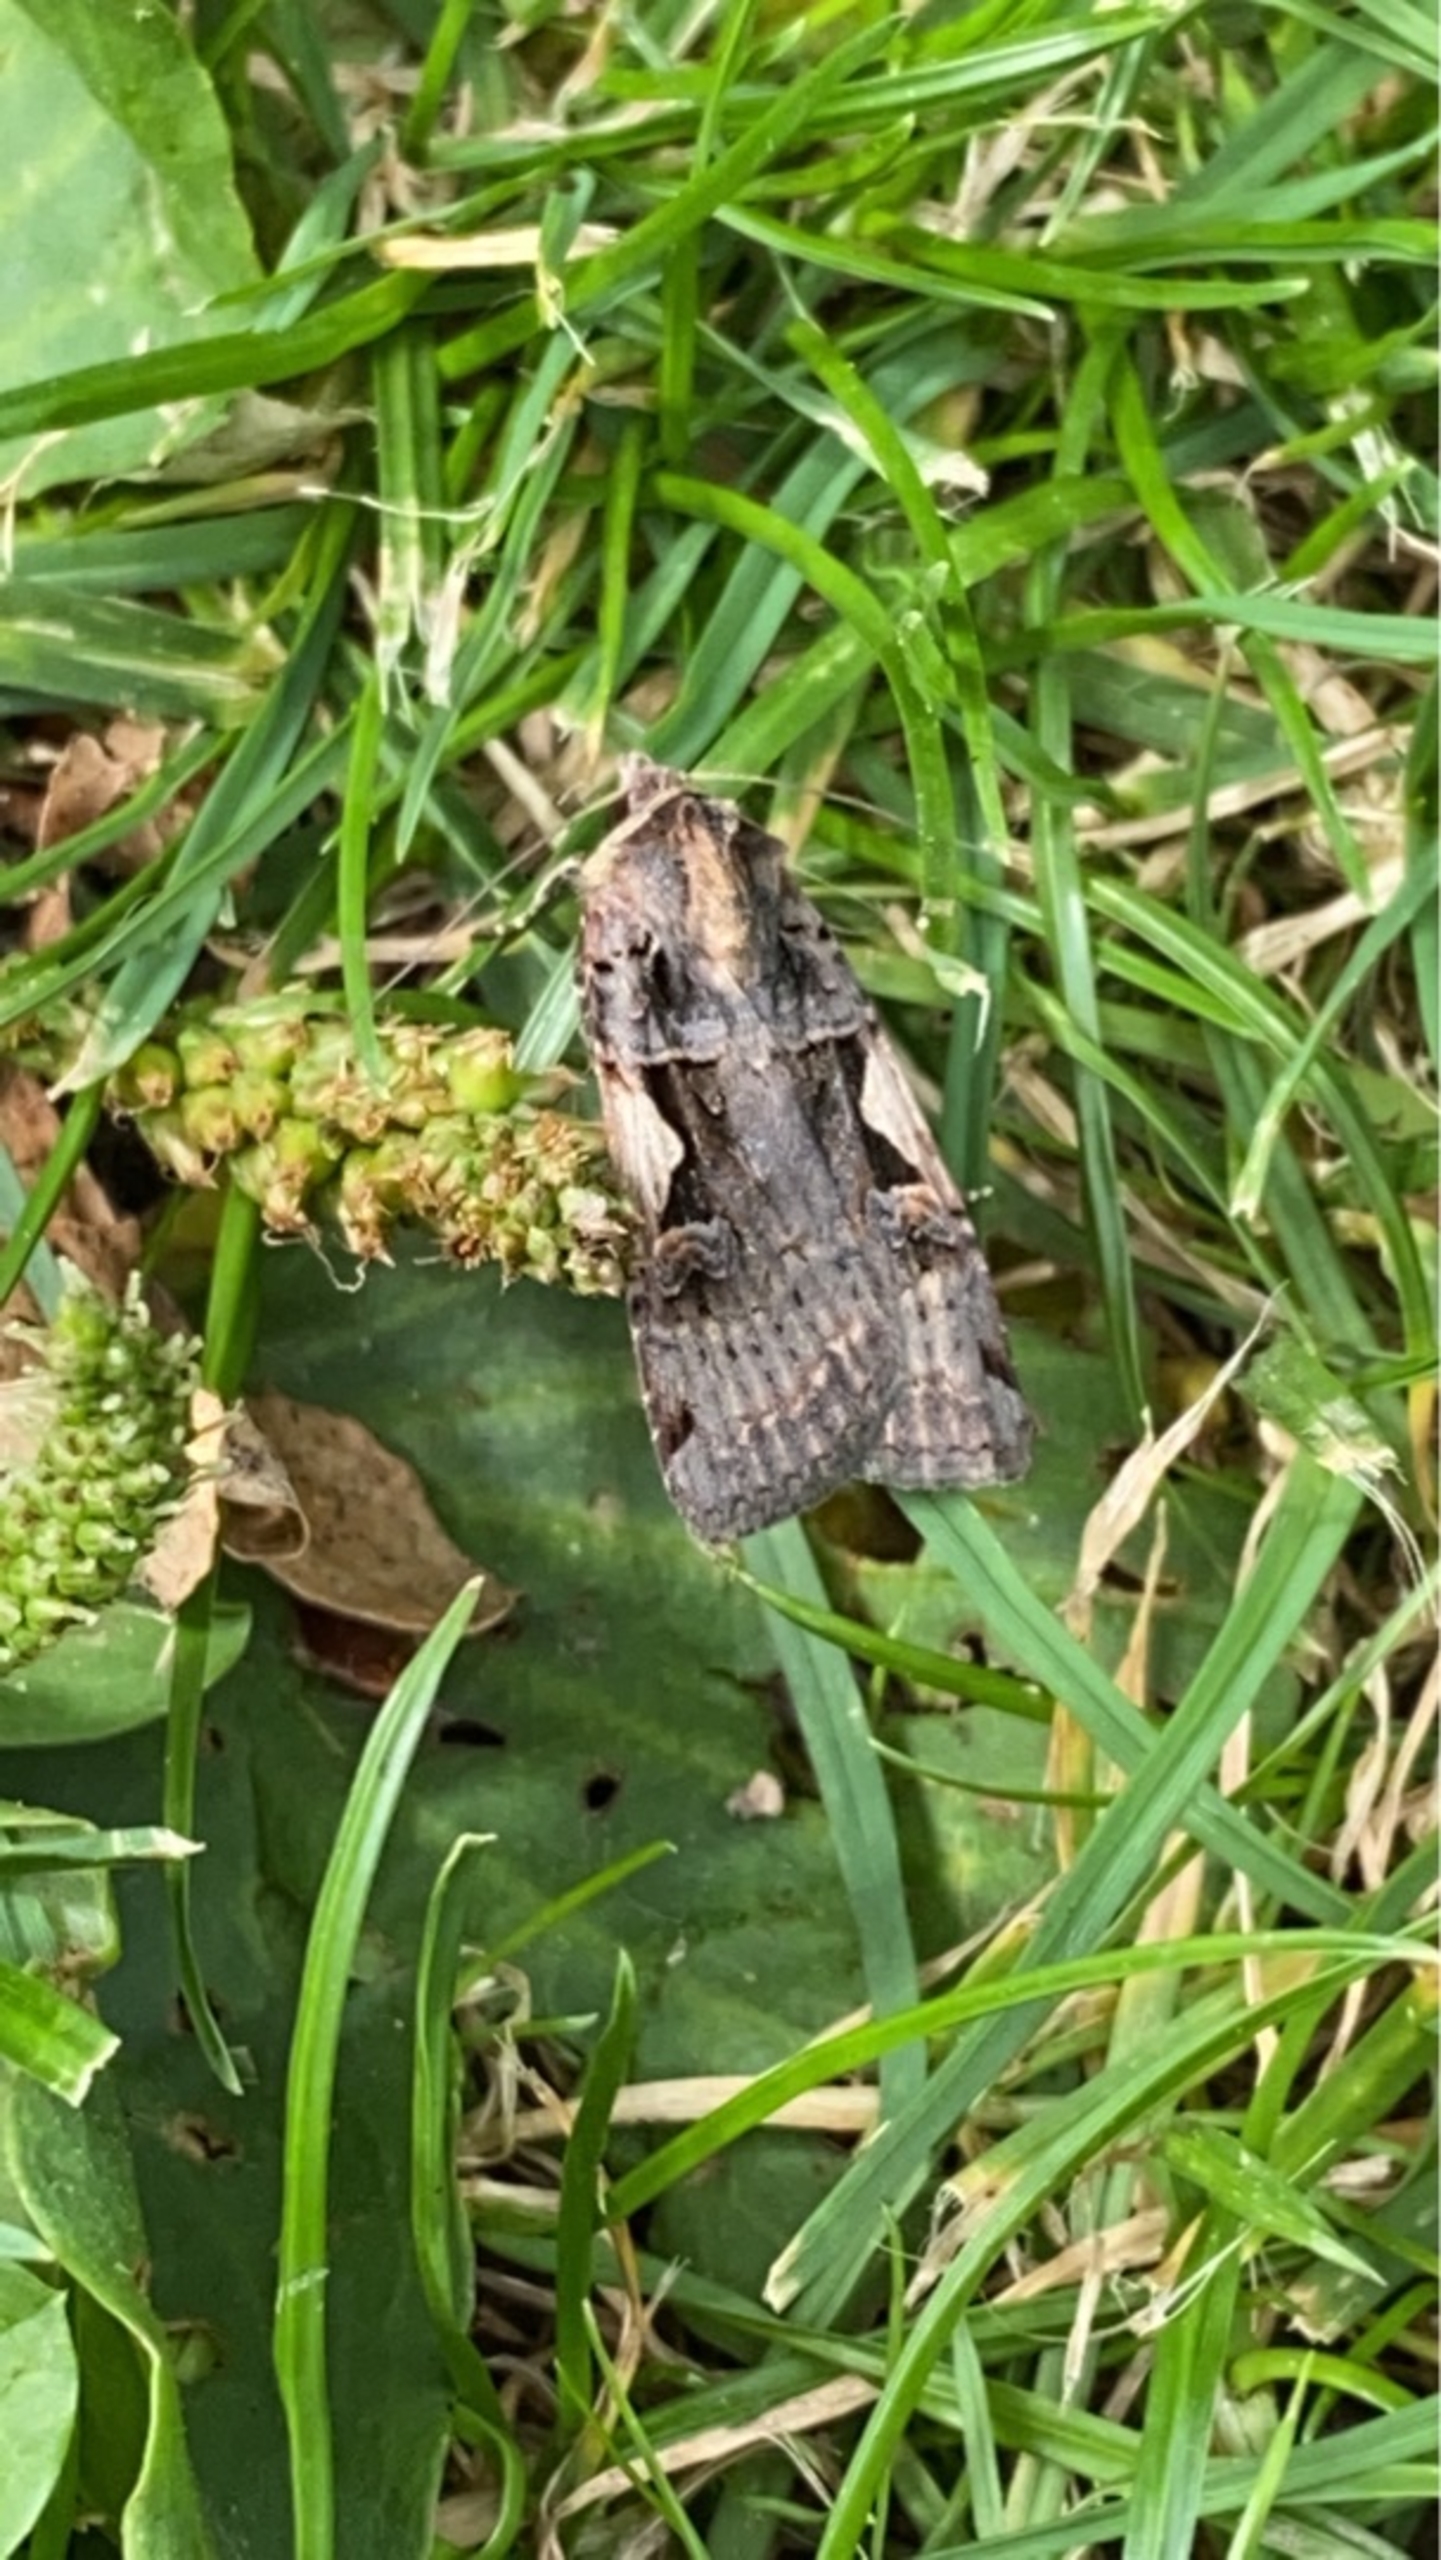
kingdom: Animalia
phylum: Arthropoda
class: Insecta
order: Lepidoptera
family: Noctuidae
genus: Xestia
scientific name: Xestia c-nigrum
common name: Det sorte c
